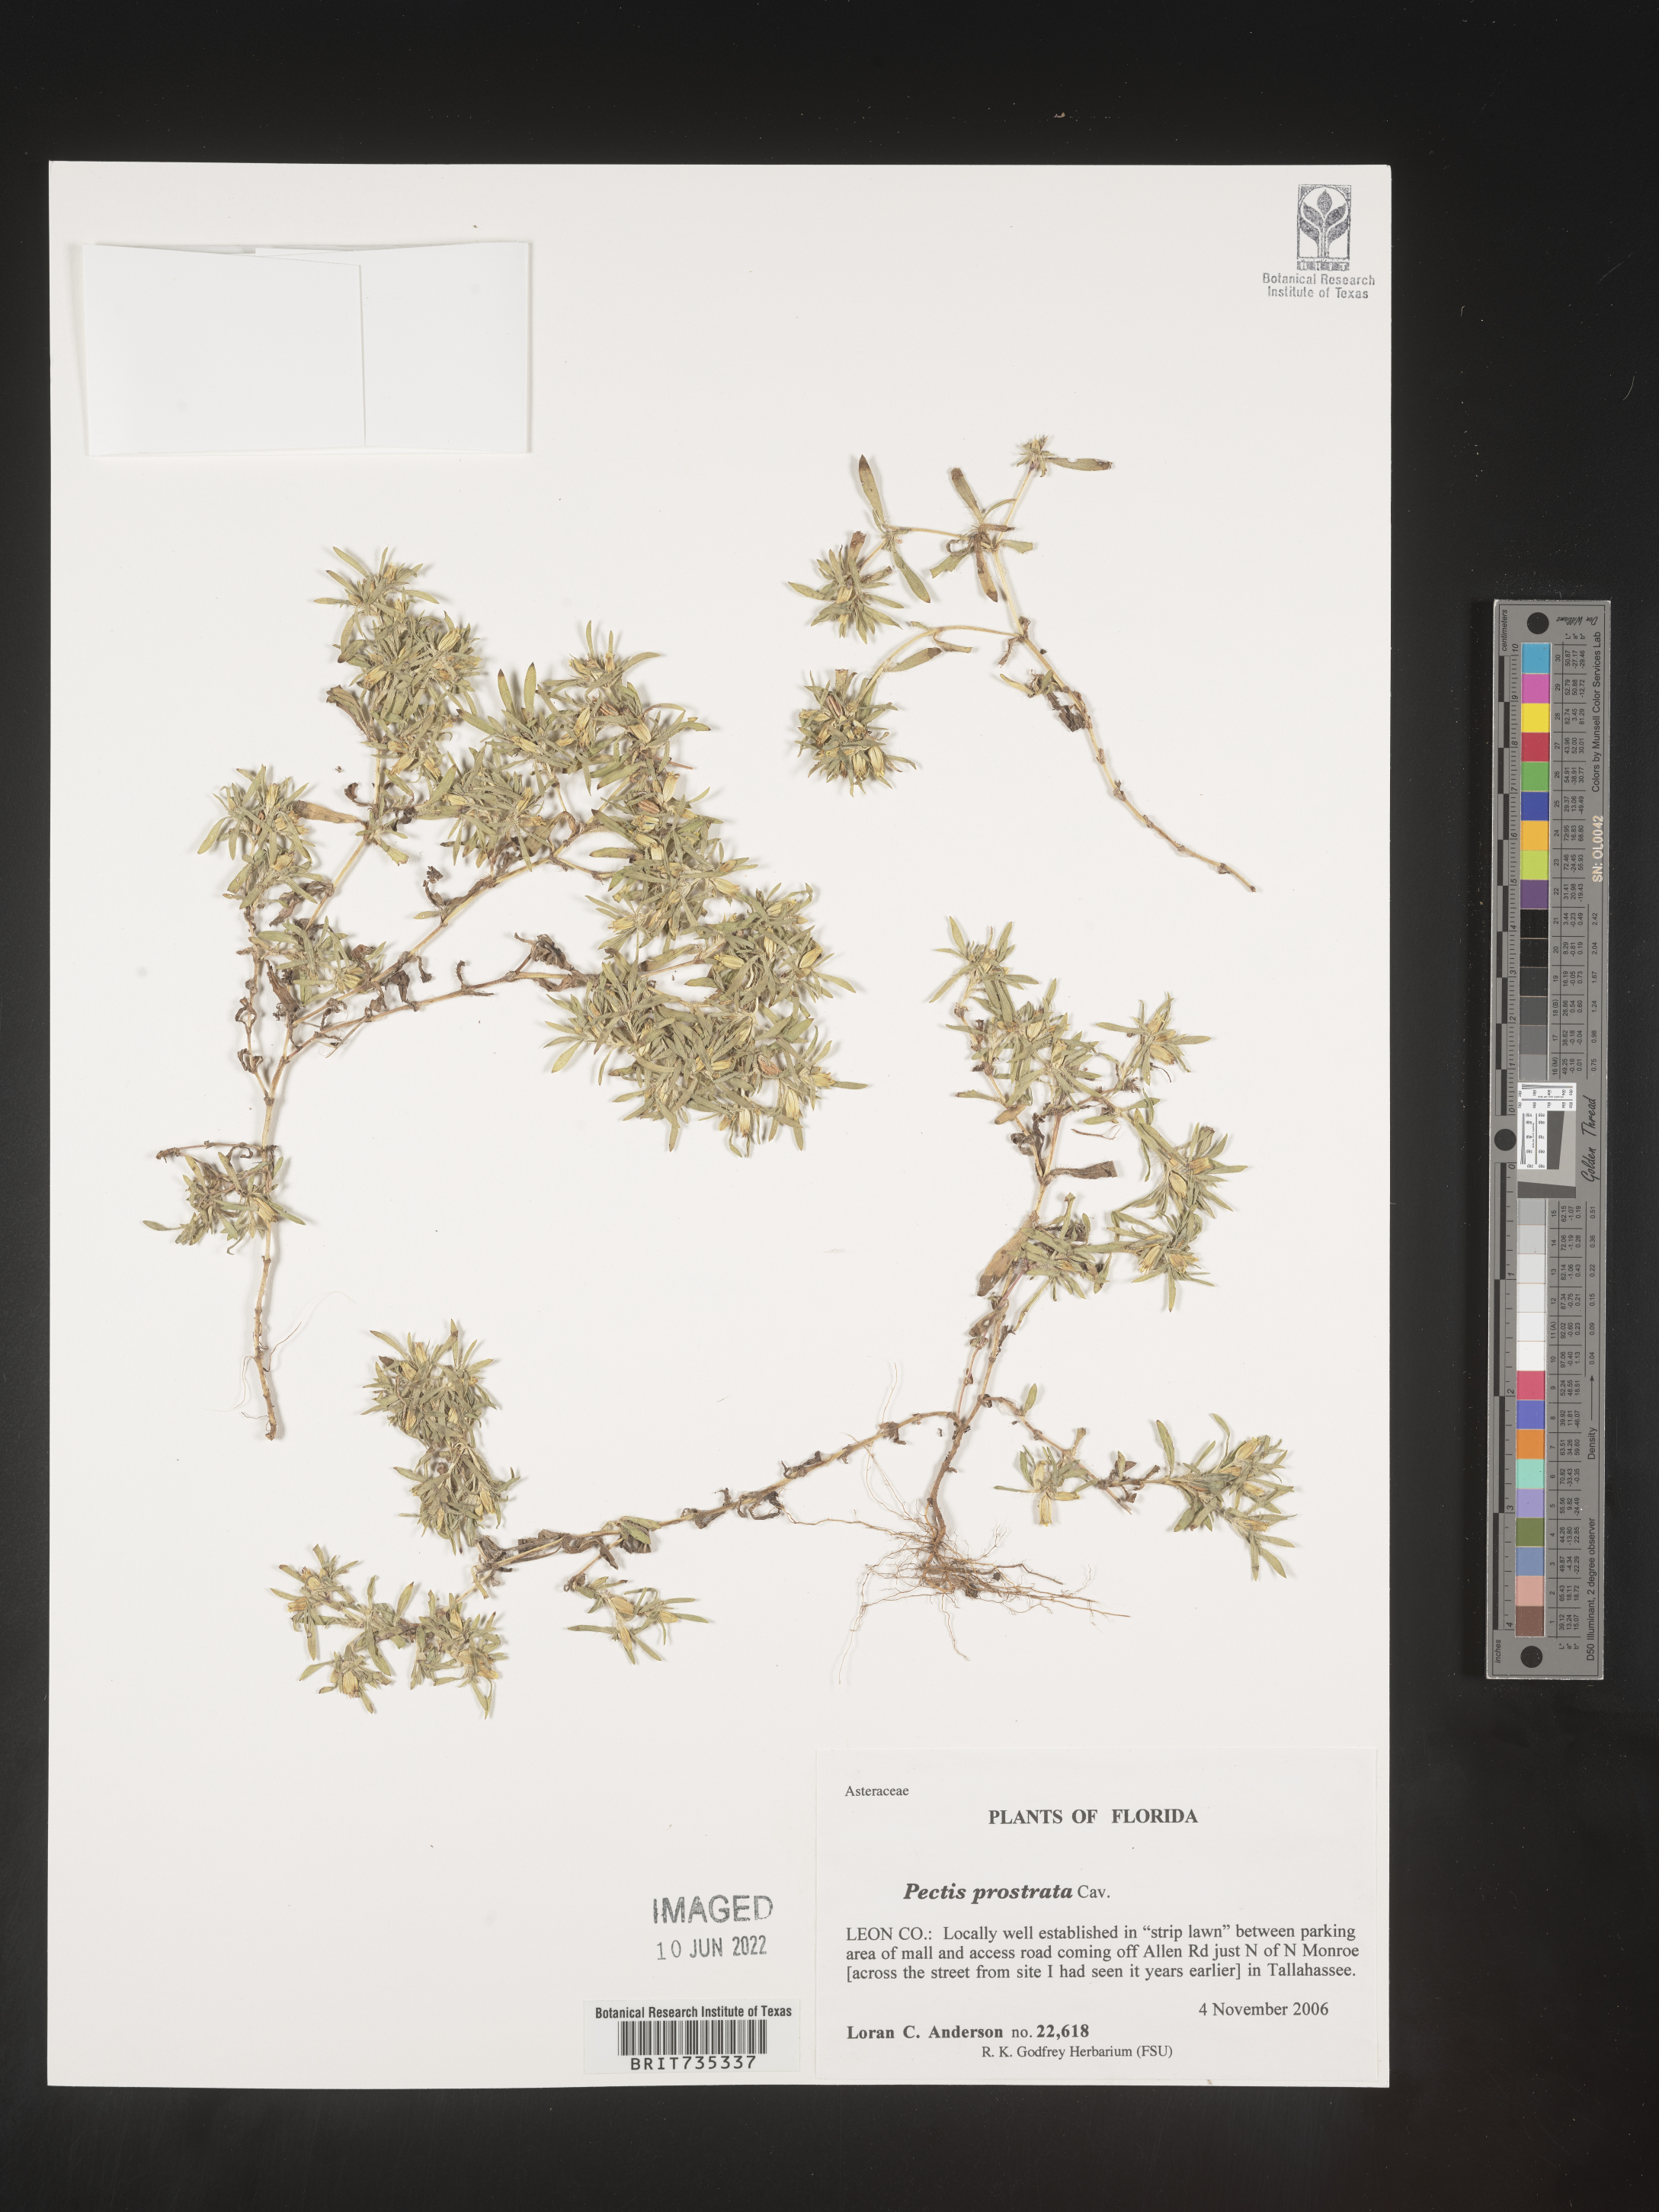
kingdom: Plantae
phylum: Tracheophyta
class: Magnoliopsida
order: Asterales
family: Asteraceae
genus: Pectis
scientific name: Pectis prostrata
